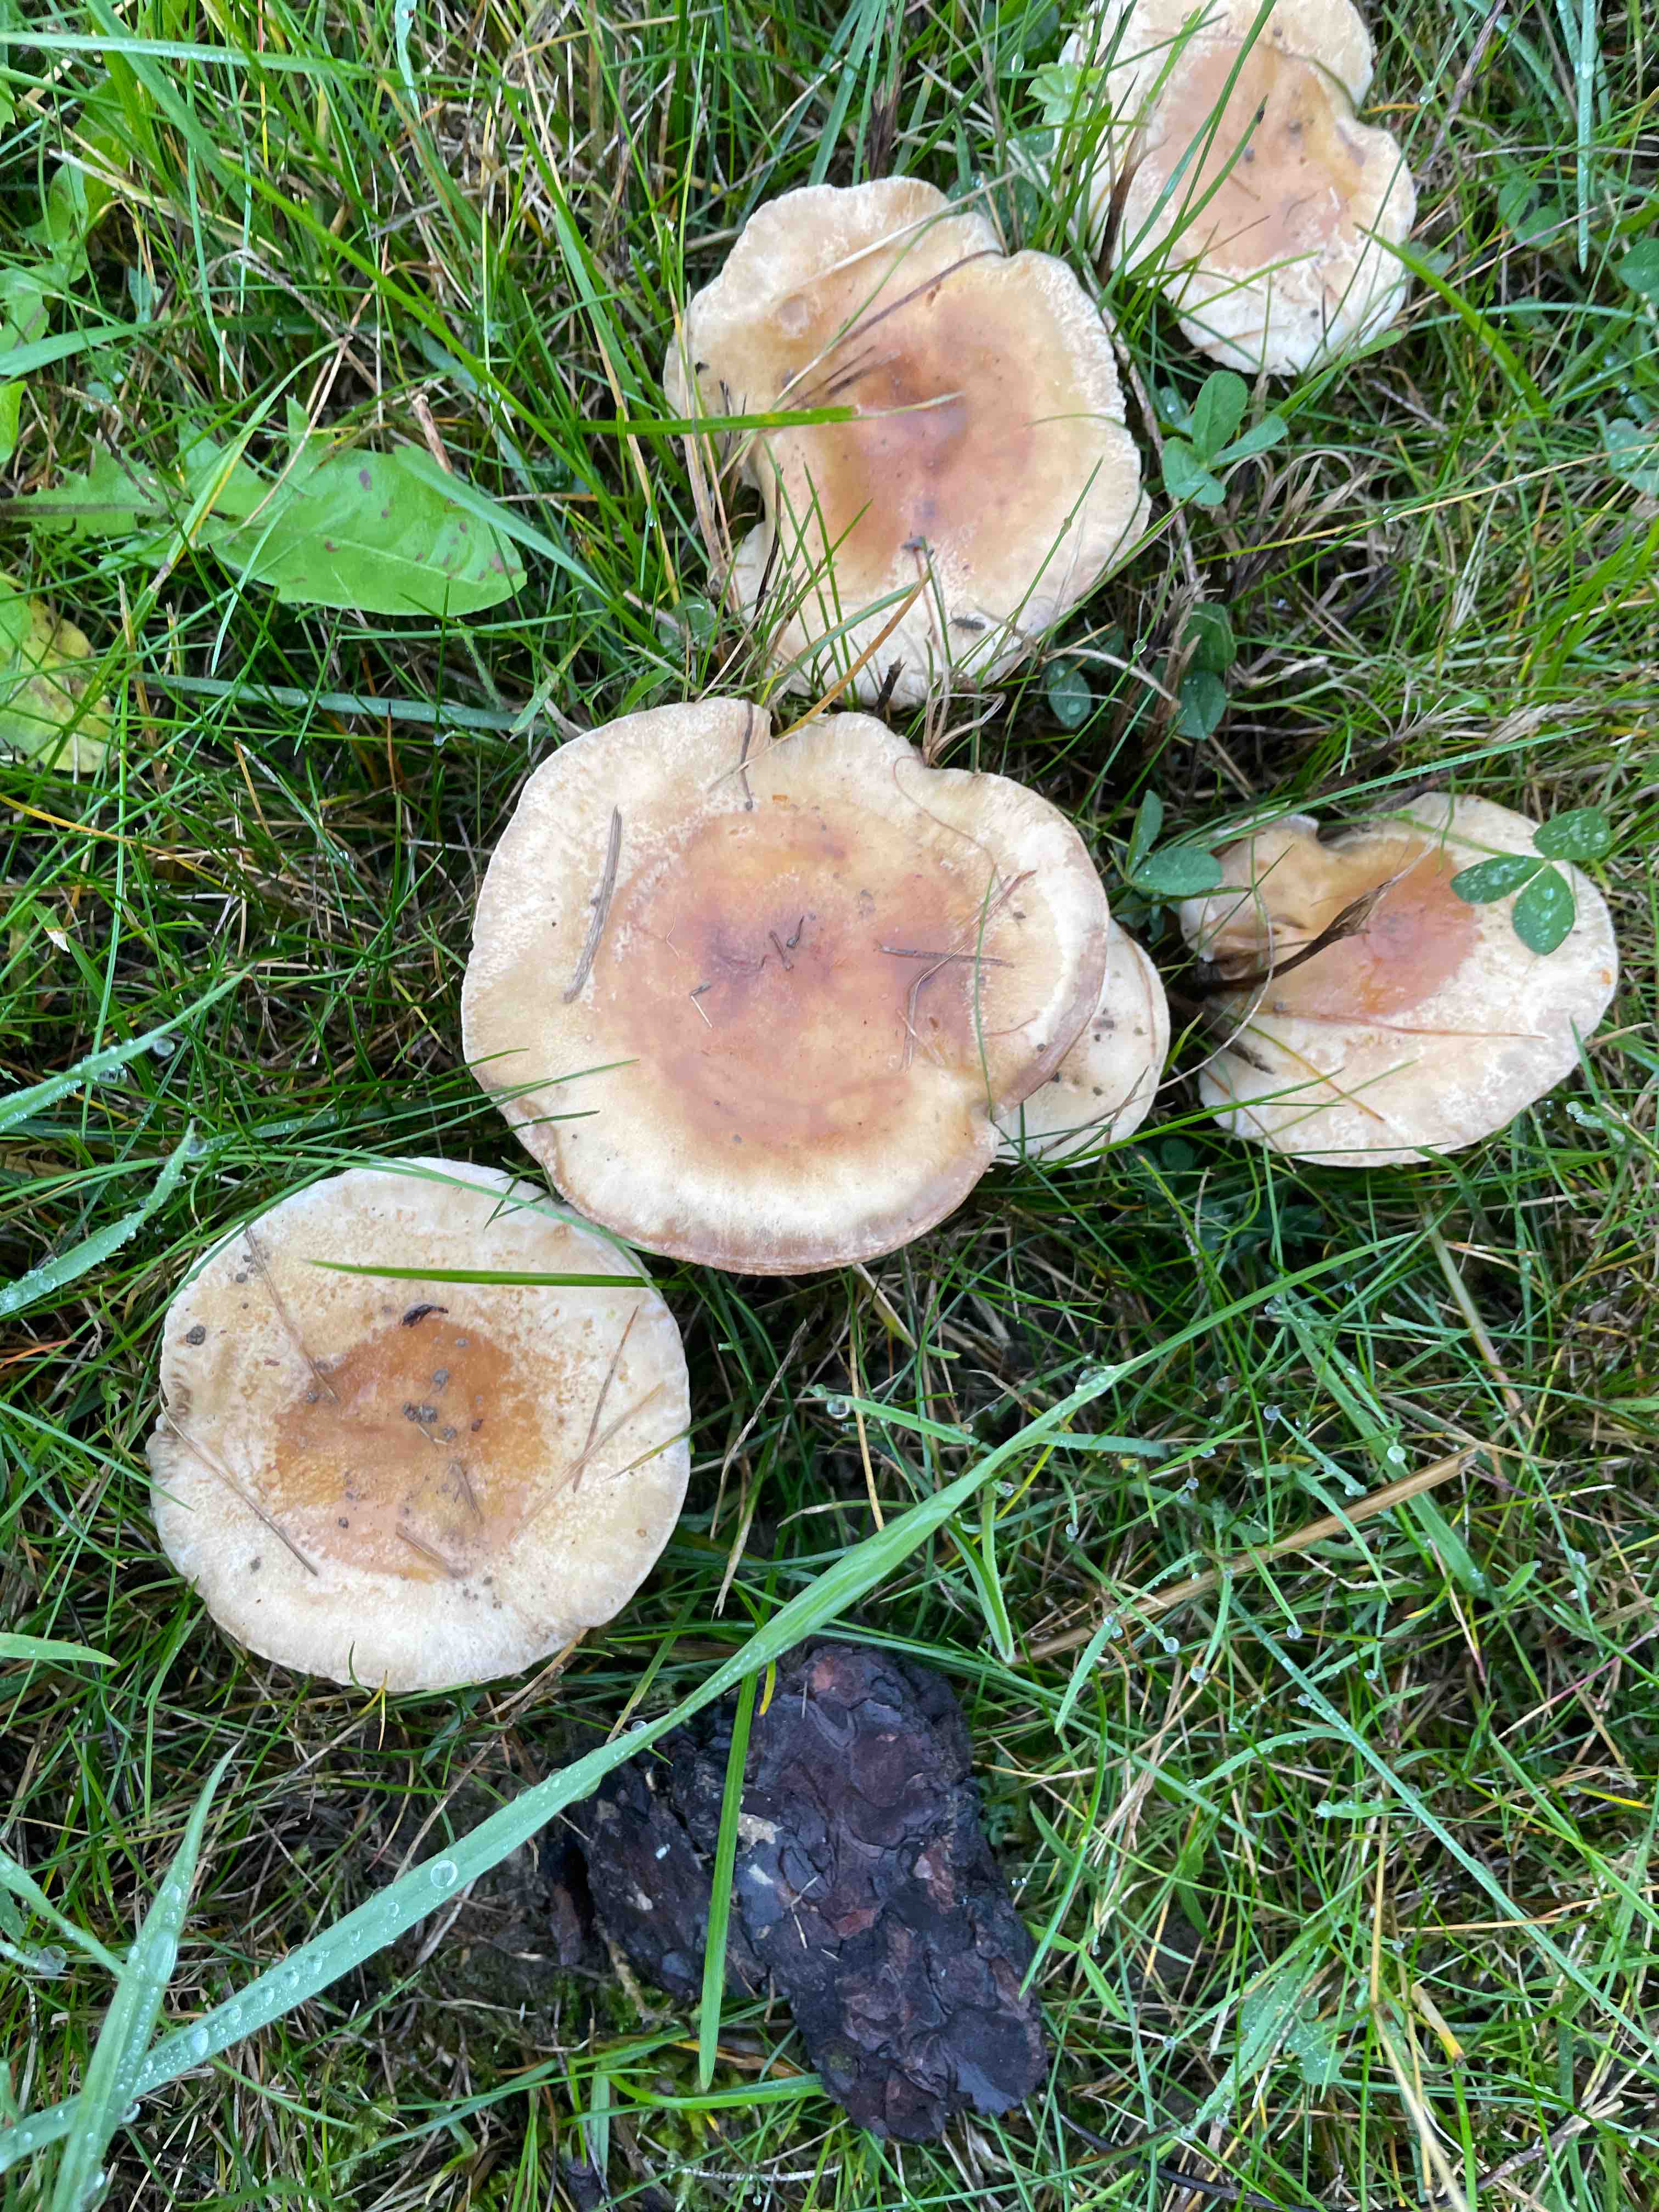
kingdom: Fungi
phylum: Basidiomycota
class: Agaricomycetes
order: Agaricales
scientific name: Agaricales
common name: champignonordenen
